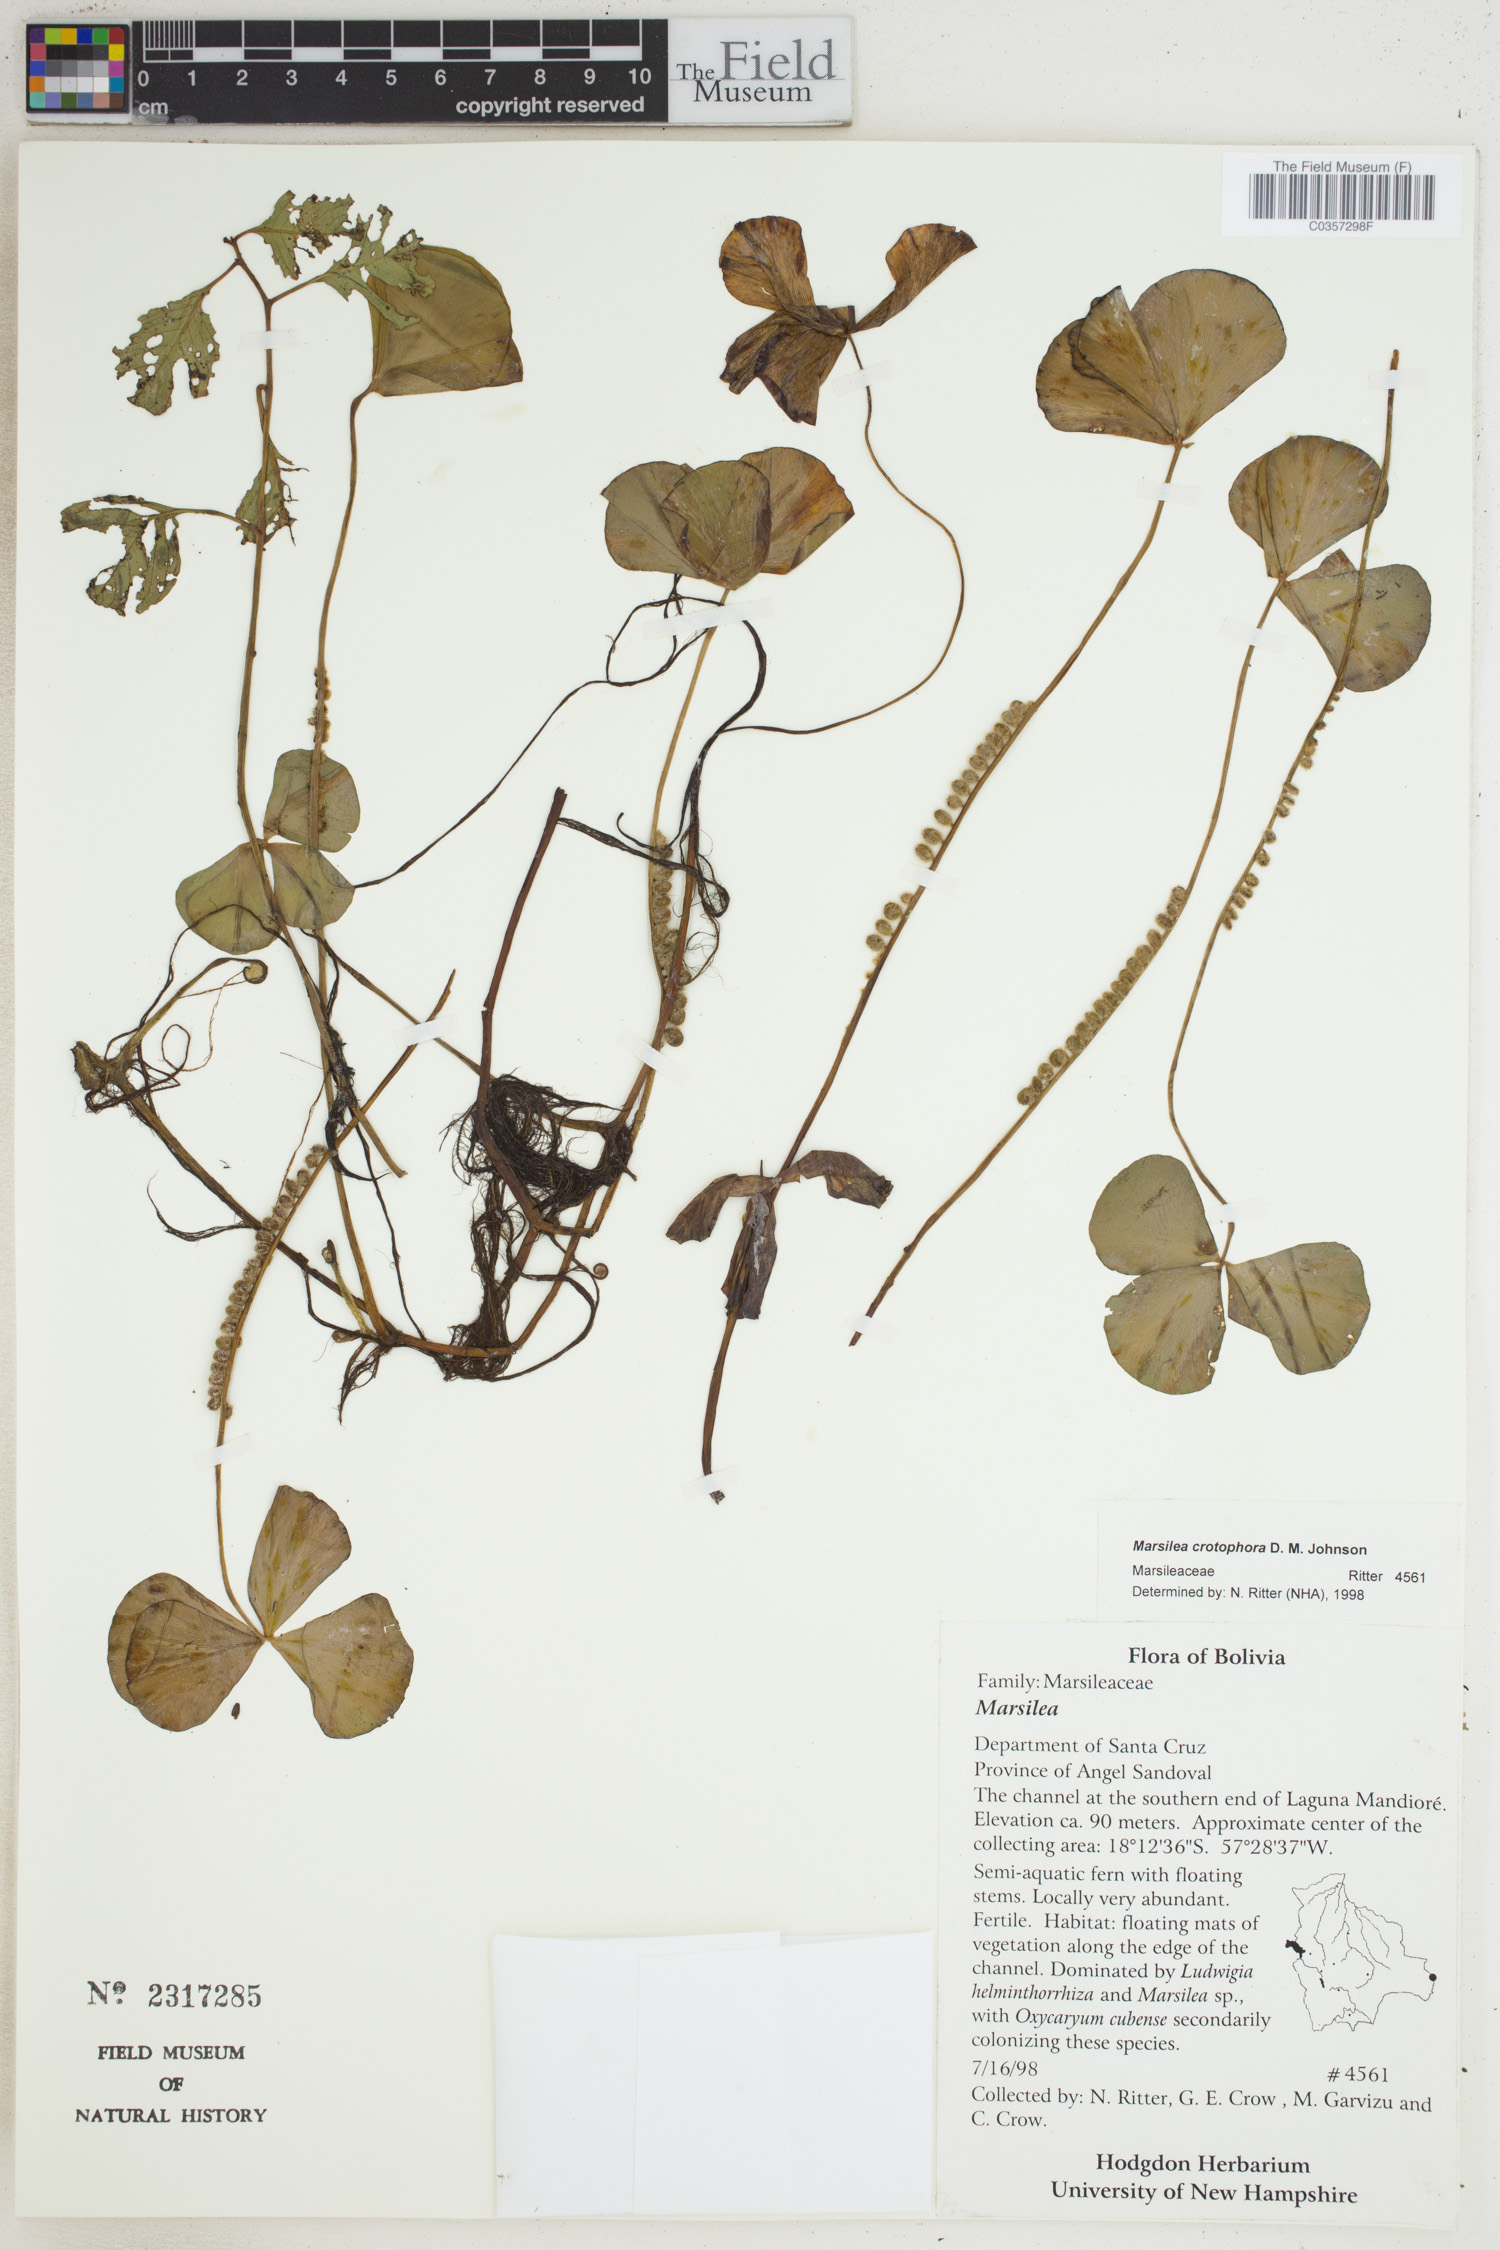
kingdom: Plantae
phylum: Tracheophyta
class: Polypodiopsida
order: Salviniales
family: Marsileaceae
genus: Marsilea
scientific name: Marsilea crotophora
